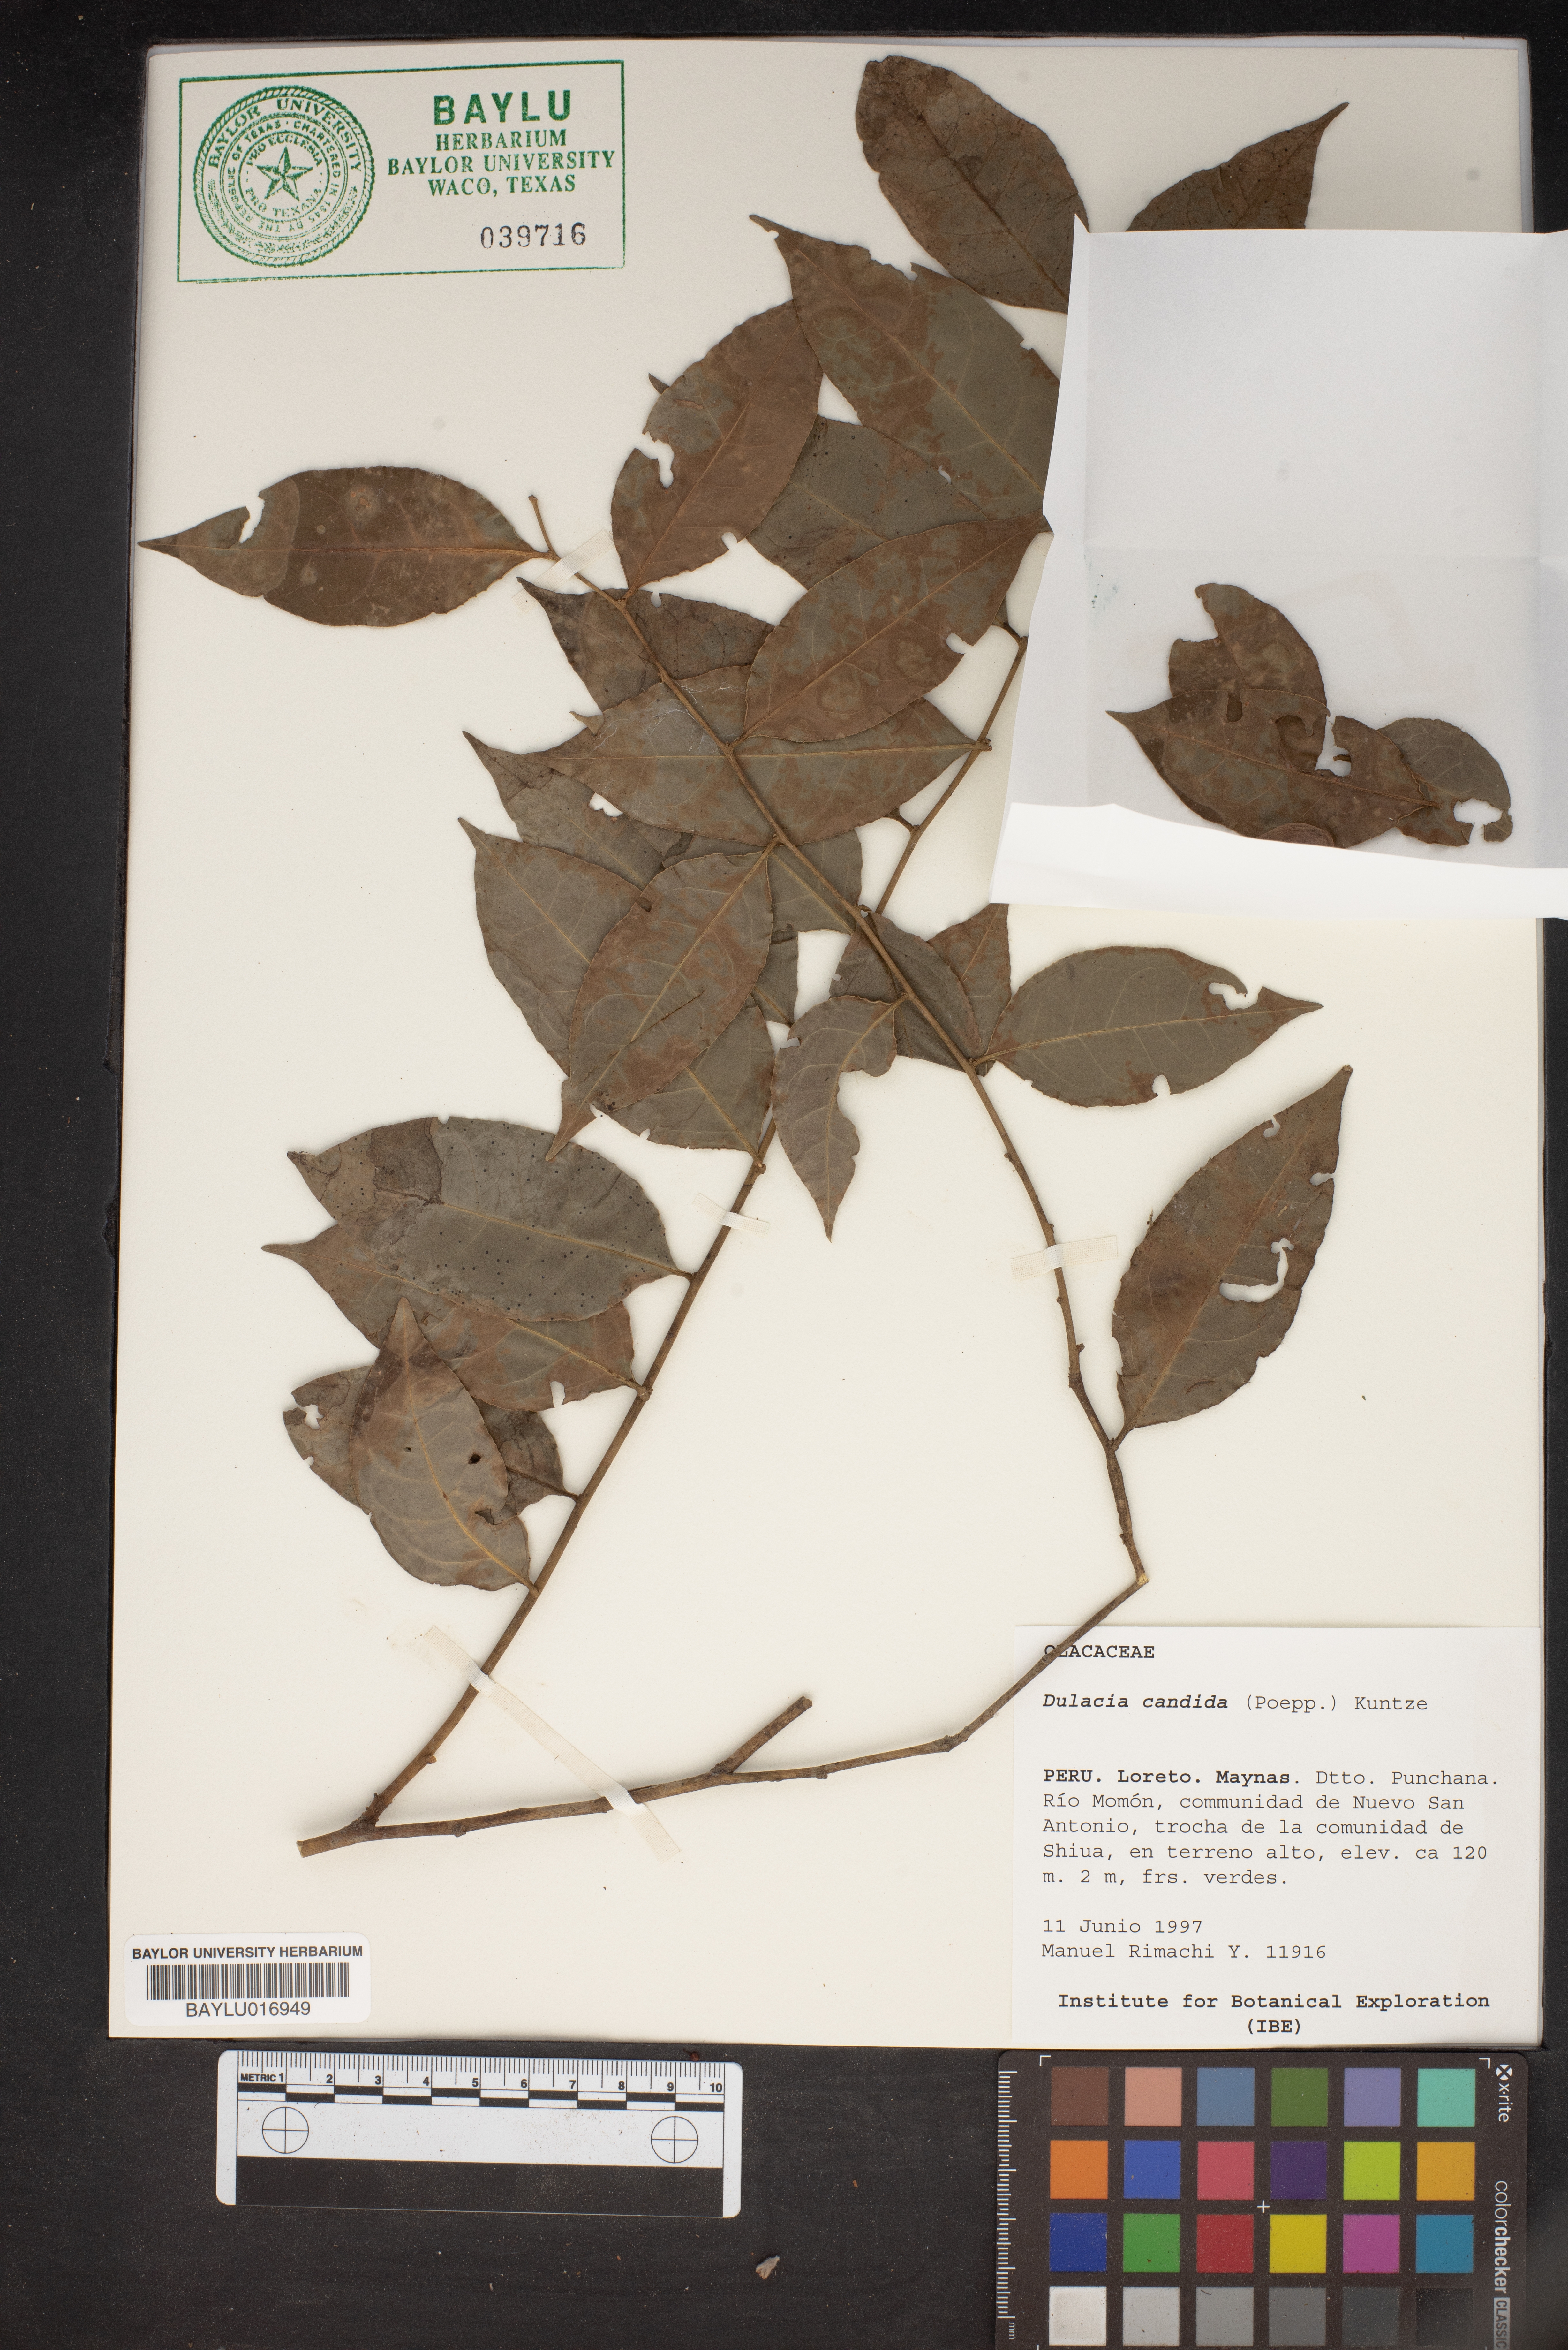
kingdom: Plantae
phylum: Tracheophyta
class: Magnoliopsida
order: Santalales
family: Olacaceae
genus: Dulacia
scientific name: Dulacia candida
